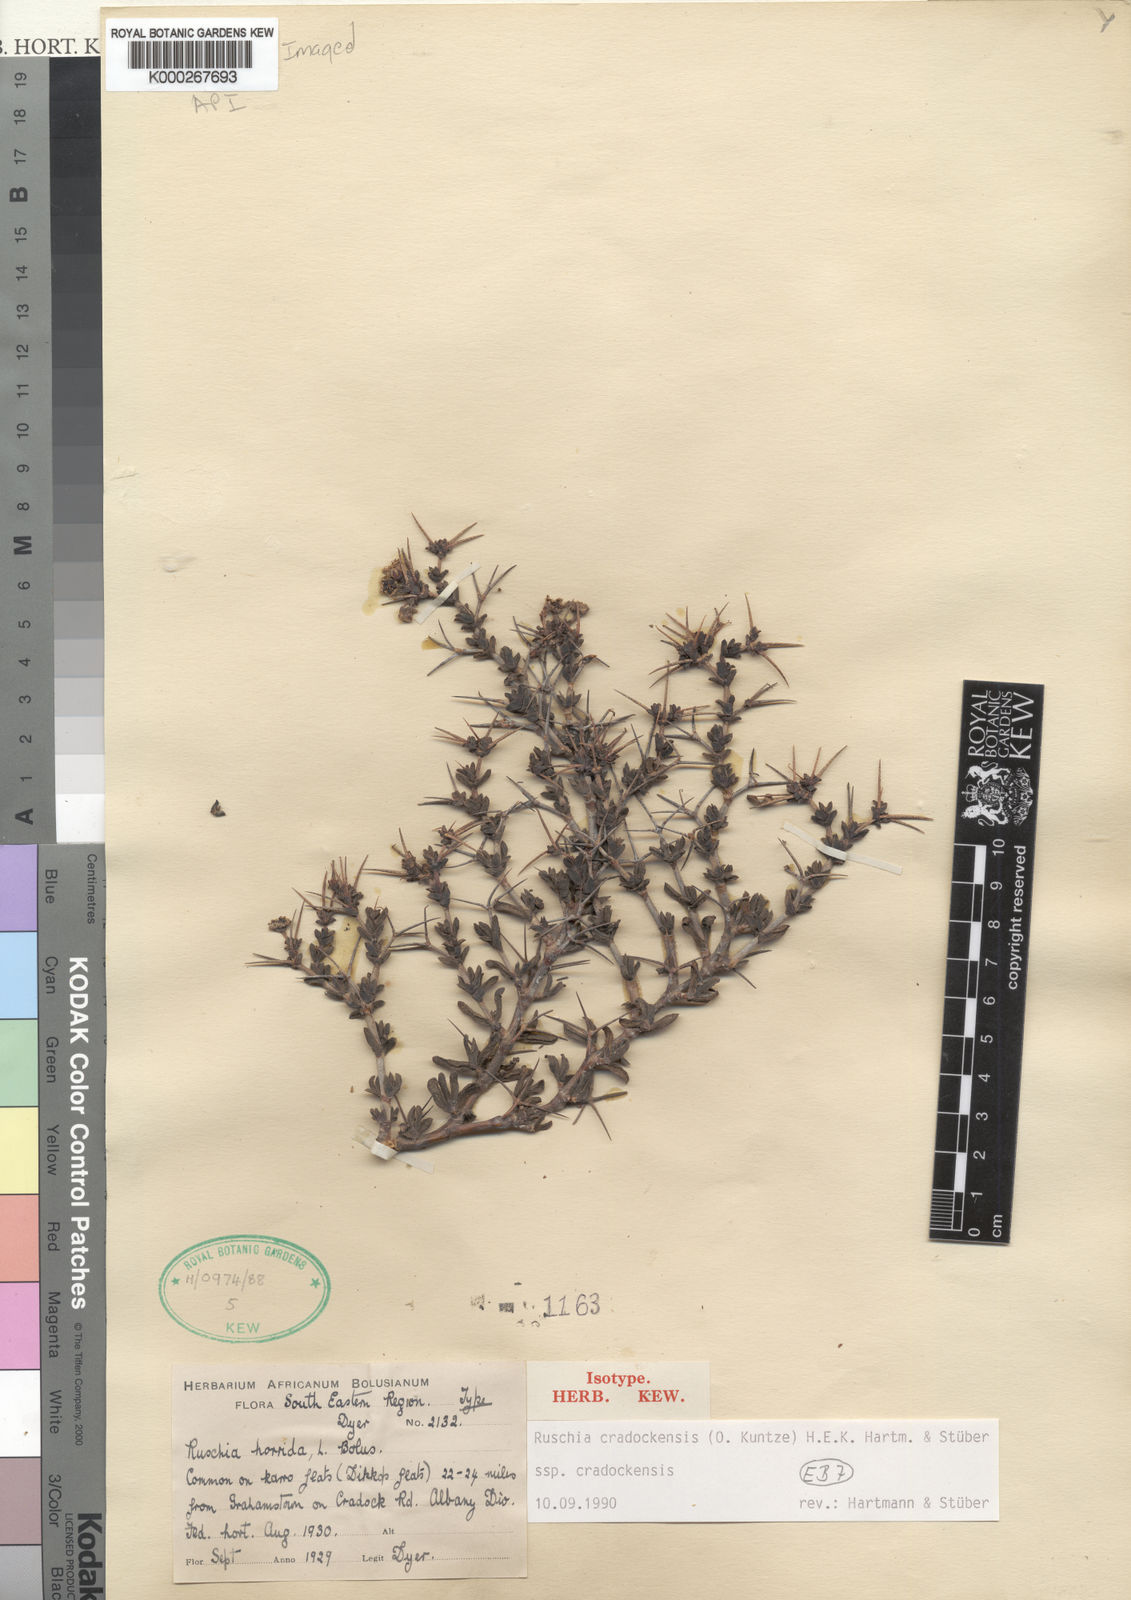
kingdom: Plantae
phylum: Tracheophyta
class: Magnoliopsida
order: Caryophyllales
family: Aizoaceae
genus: Ruschia
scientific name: Ruschia
